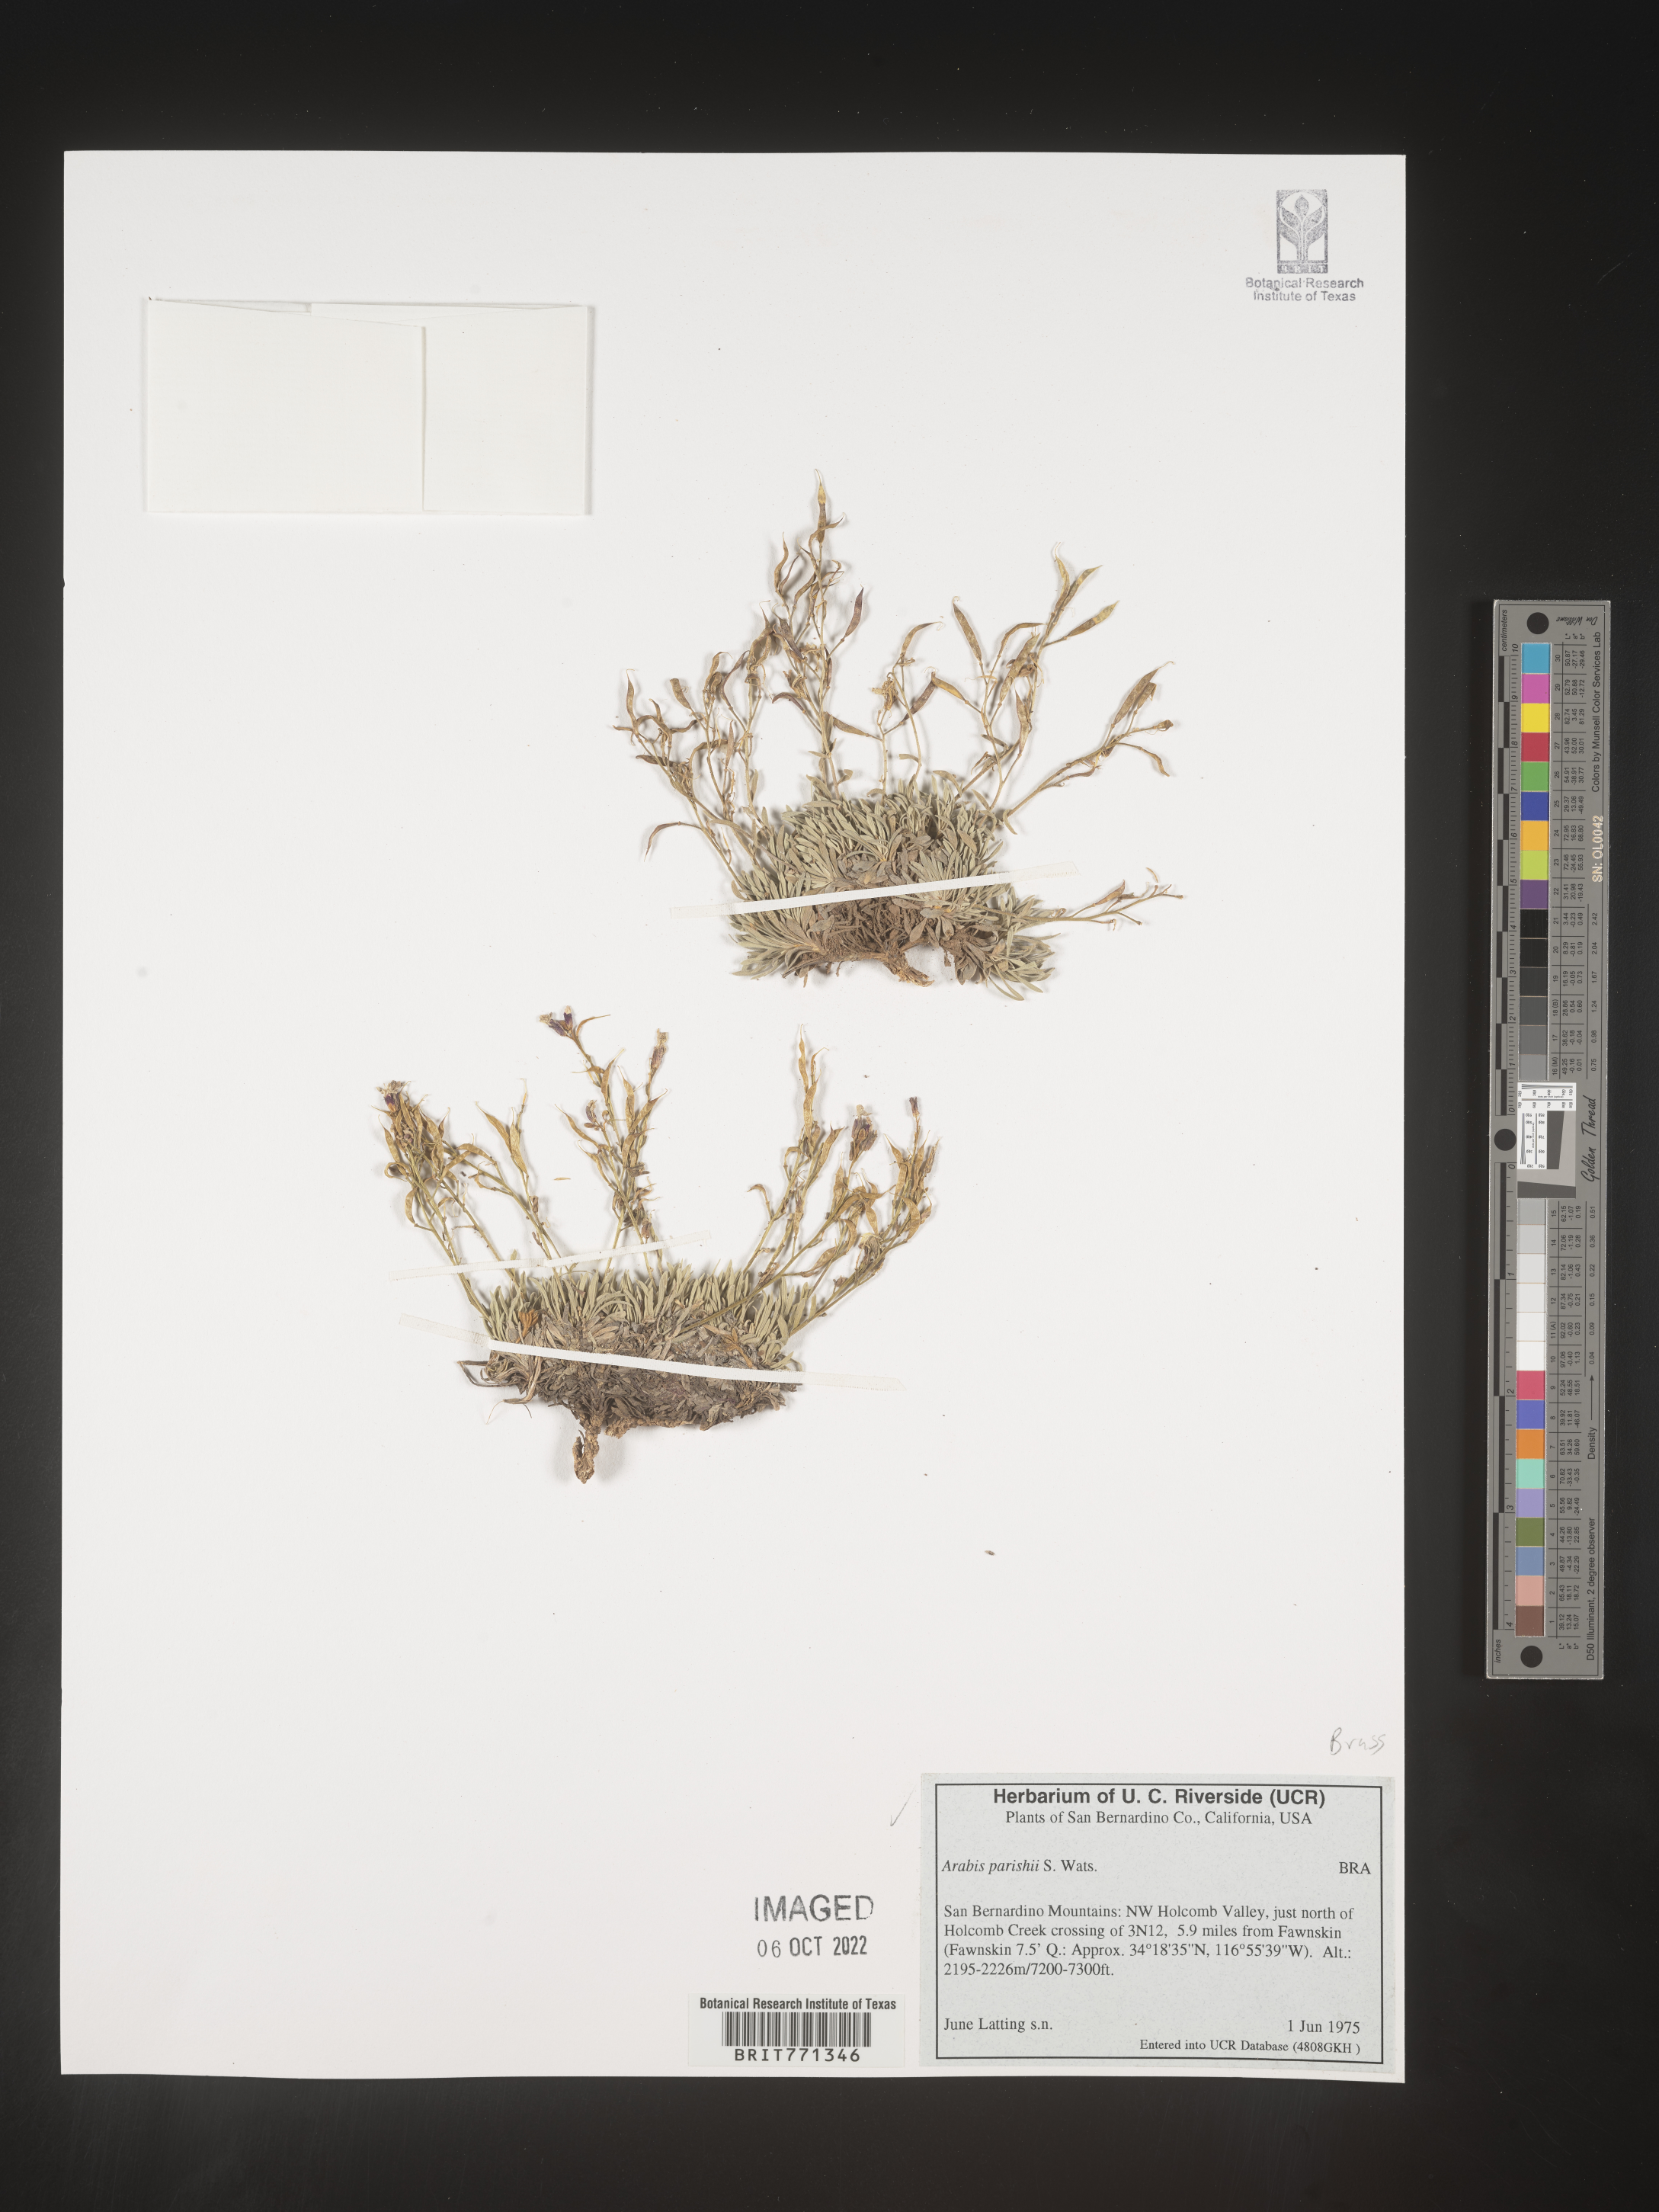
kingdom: Plantae
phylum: Tracheophyta
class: Magnoliopsida
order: Brassicales
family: Brassicaceae
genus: Arabis
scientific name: Arabis
